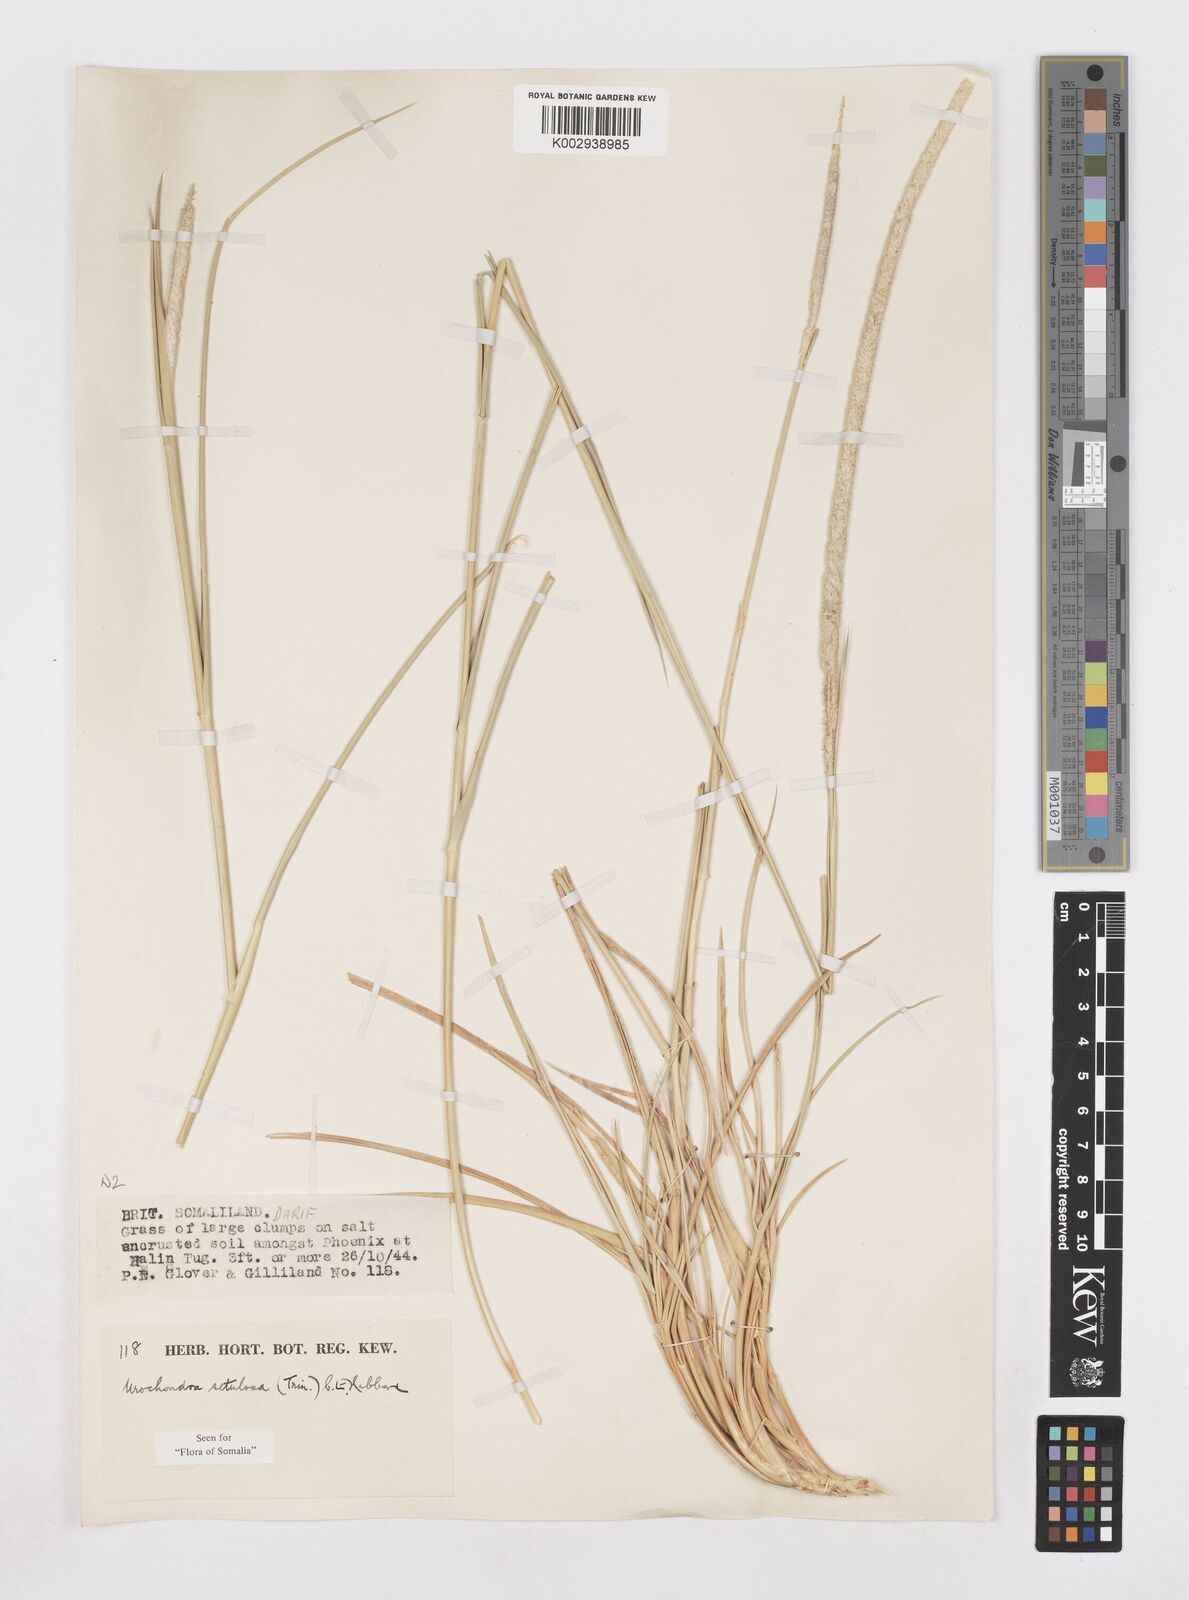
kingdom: Plantae
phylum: Tracheophyta
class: Liliopsida
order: Poales
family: Poaceae
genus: Urochondra
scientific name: Urochondra setulosa
